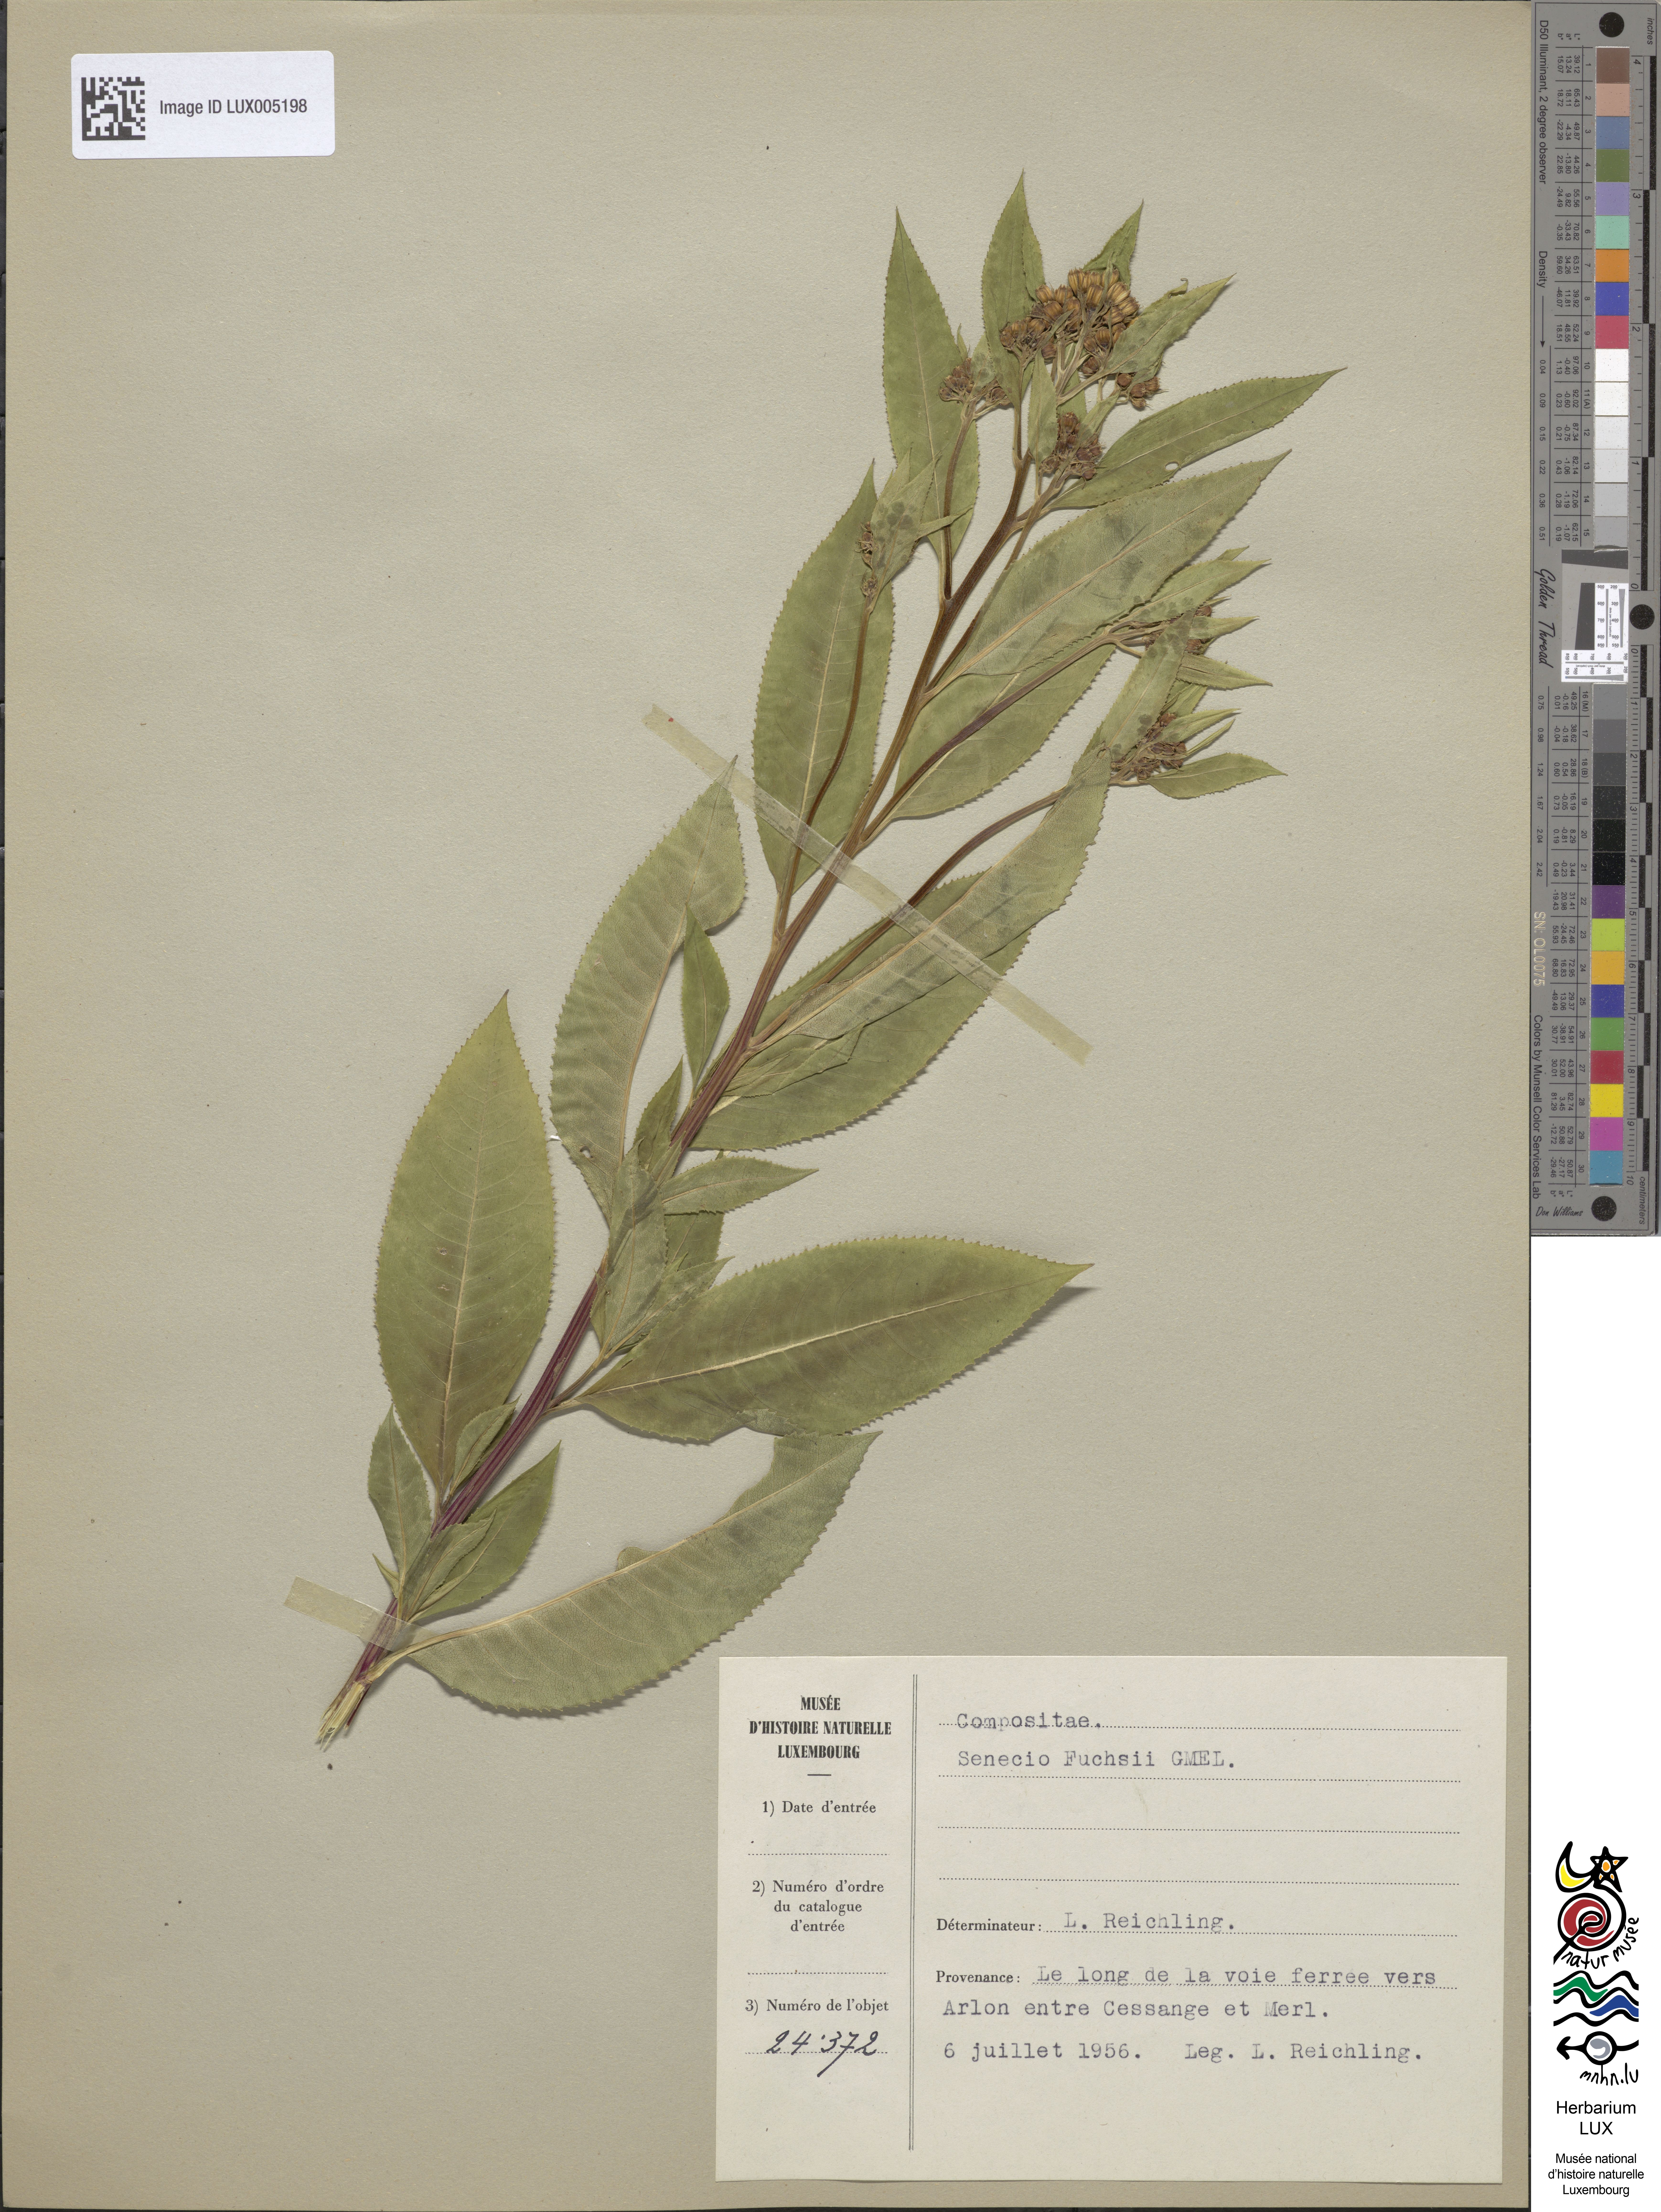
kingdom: Plantae
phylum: Tracheophyta
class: Magnoliopsida
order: Asterales
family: Asteraceae
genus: Senecio
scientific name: Senecio ovatus
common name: Wood ragwort
